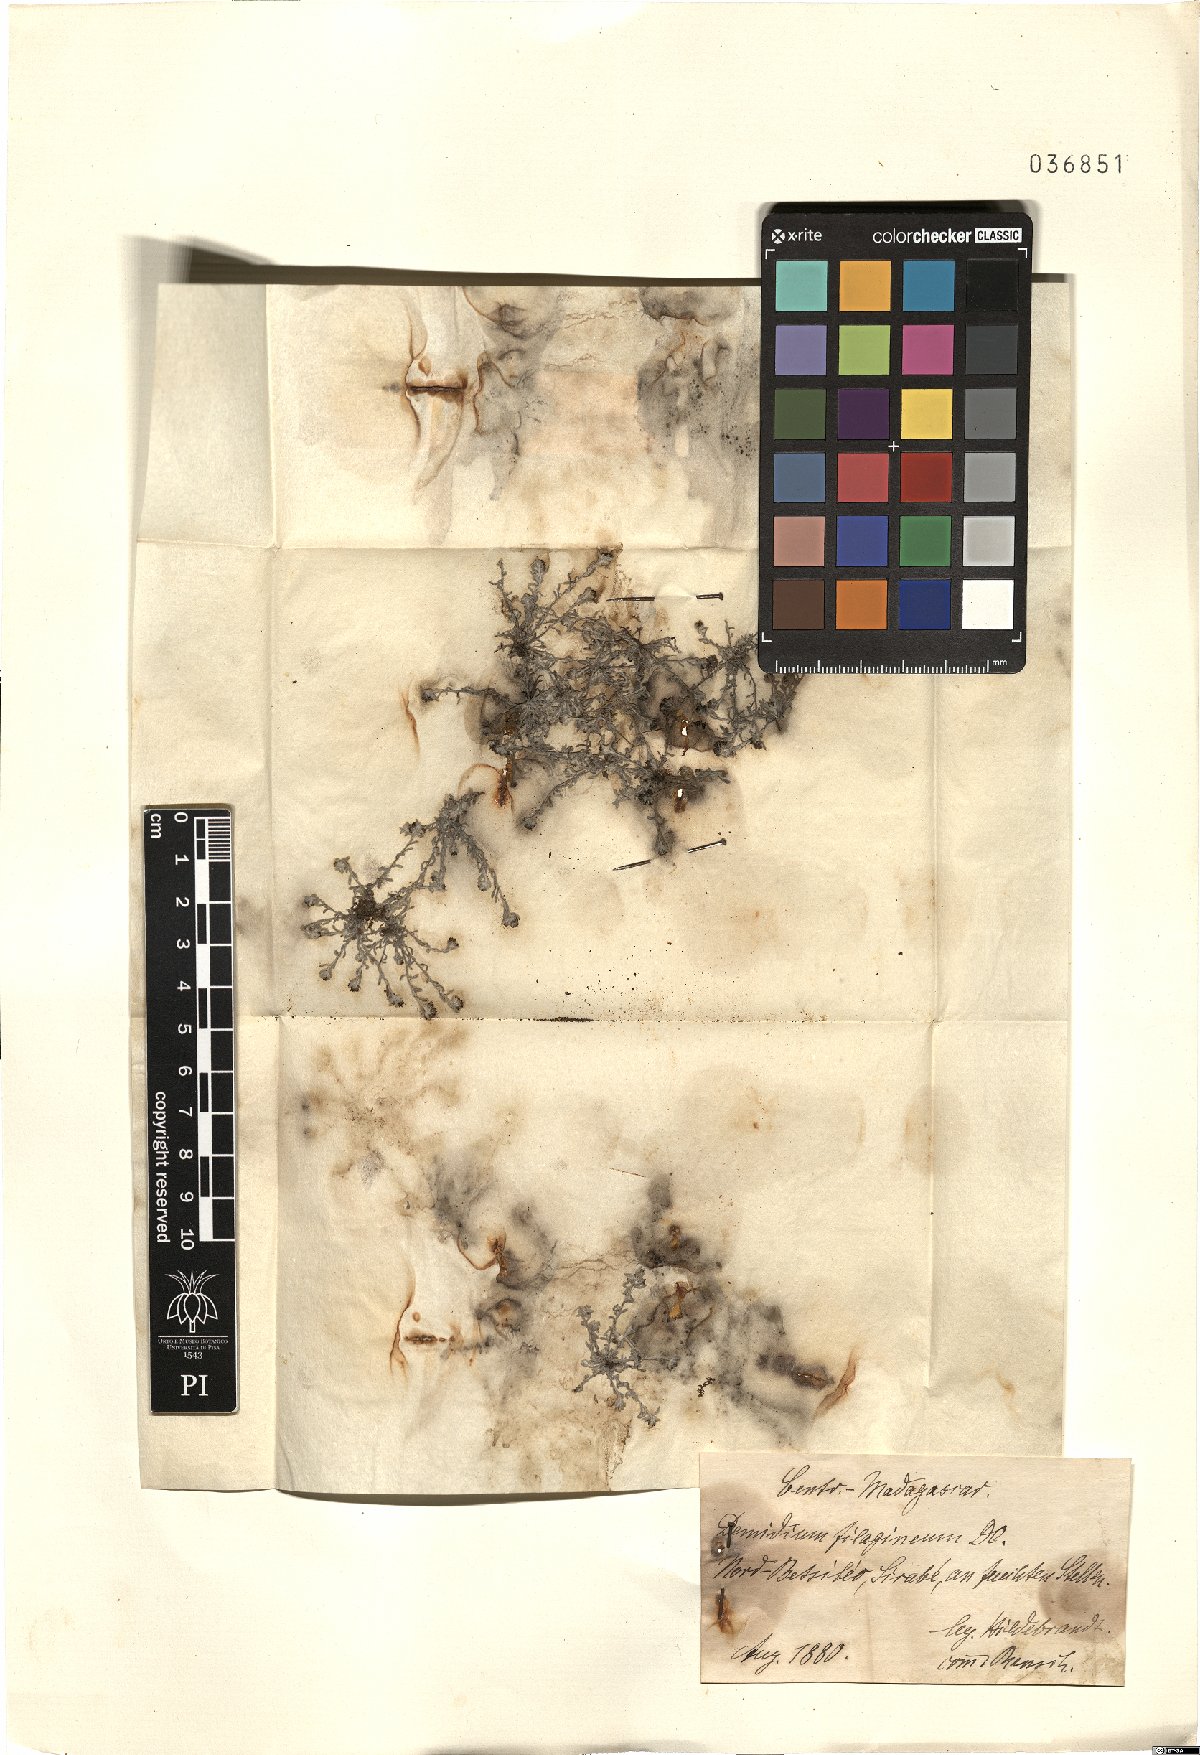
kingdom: Plantae
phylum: Tracheophyta
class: Magnoliopsida
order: Asterales
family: Asteraceae
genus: Gnaphalium
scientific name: Gnaphalium demidium
